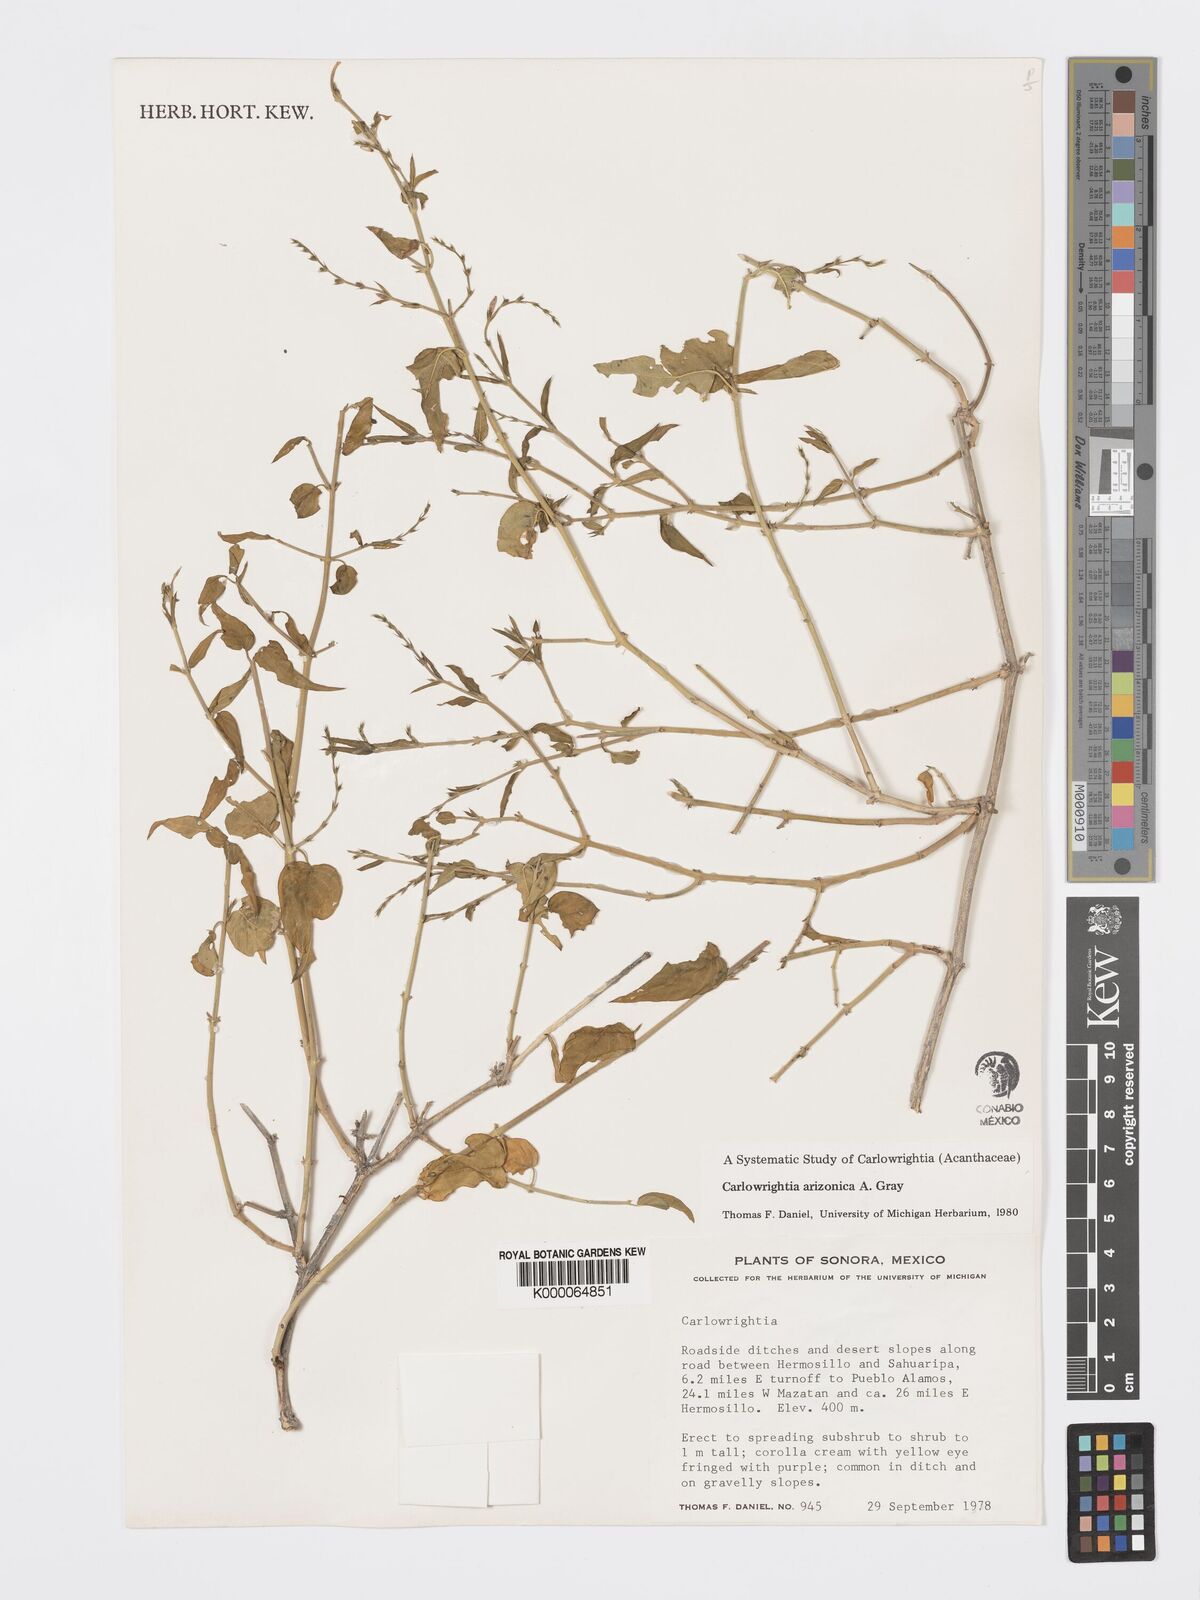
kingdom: Plantae
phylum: Tracheophyta
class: Magnoliopsida
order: Lamiales
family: Acanthaceae
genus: Carlowrightia
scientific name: Carlowrightia arizonica
